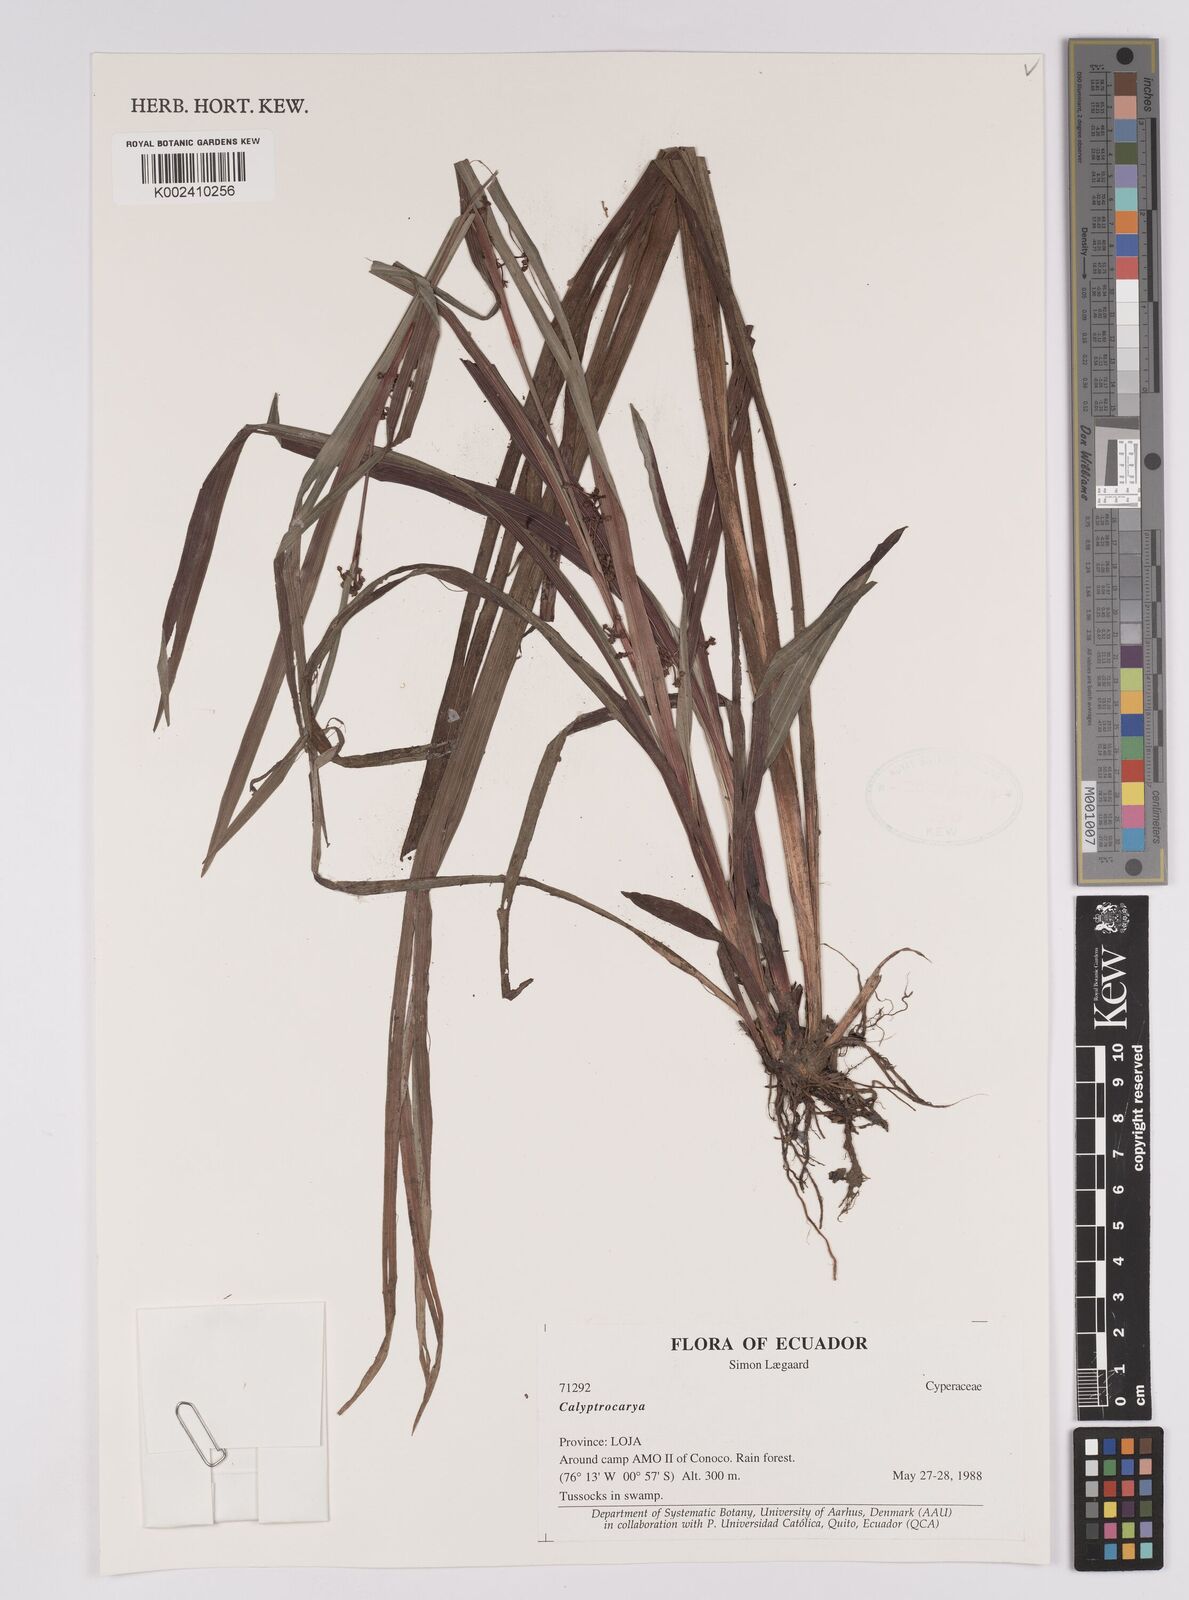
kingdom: Plantae
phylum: Tracheophyta
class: Liliopsida
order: Poales
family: Cyperaceae
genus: Calyptrocarya
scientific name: Calyptrocarya
